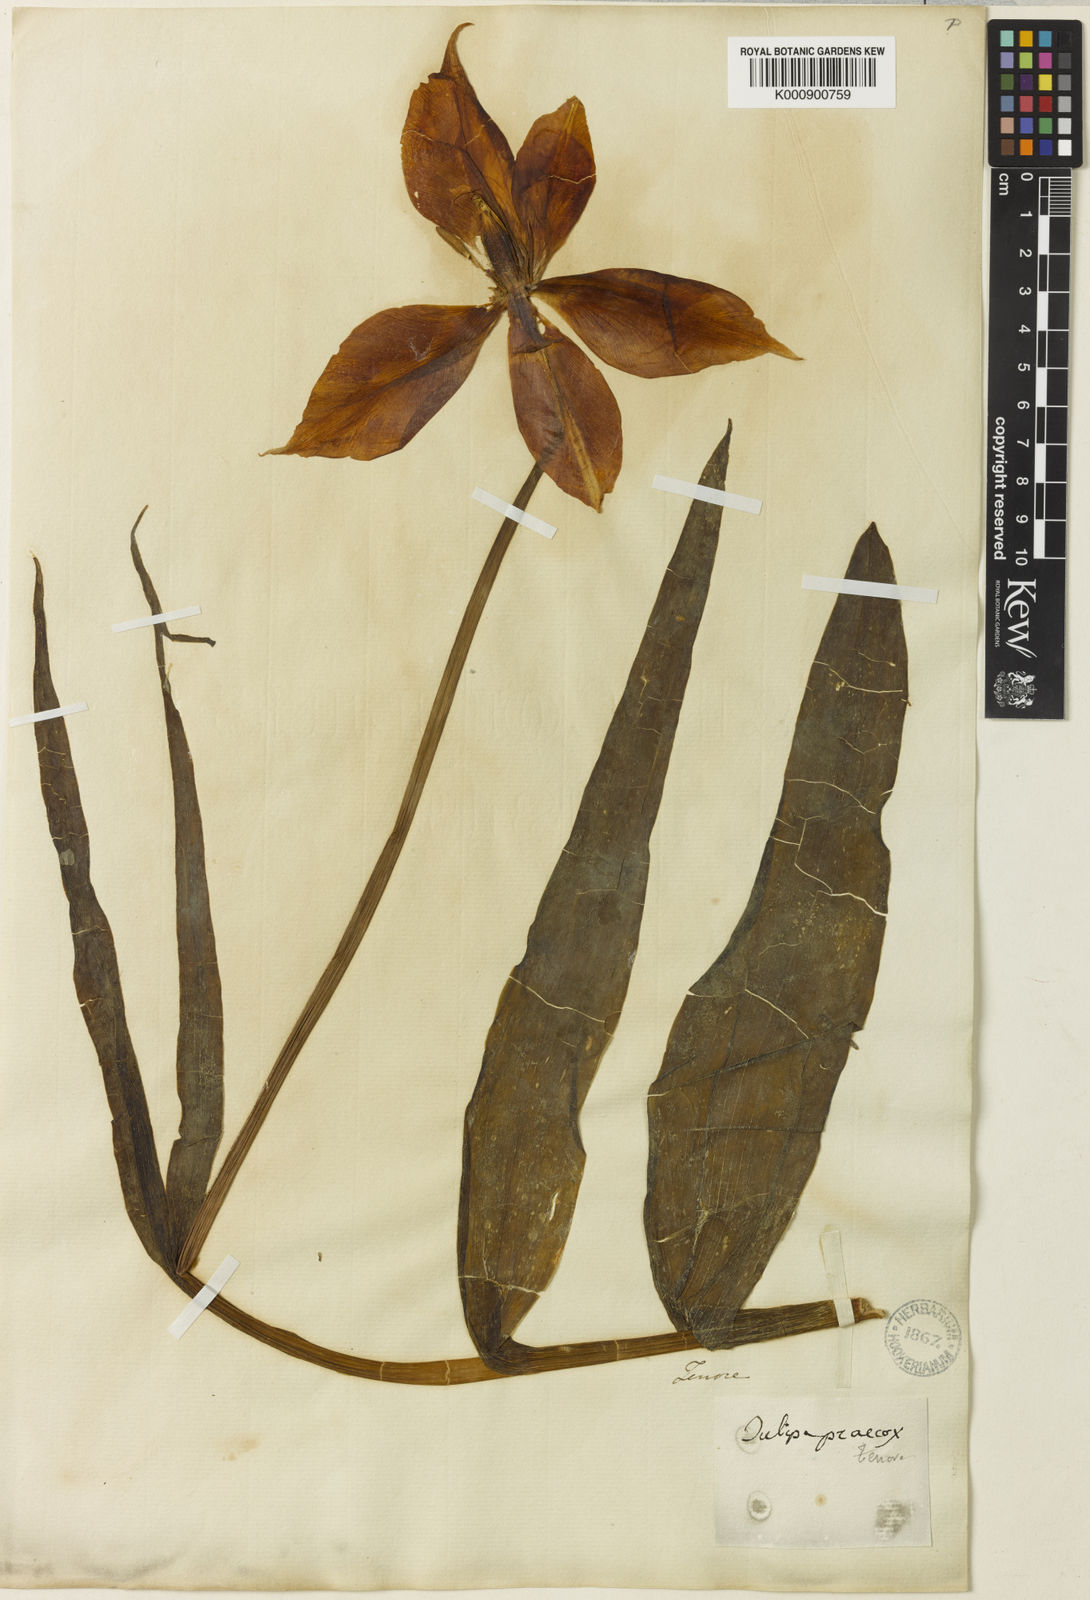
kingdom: Plantae
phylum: Tracheophyta
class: Liliopsida
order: Liliales
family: Liliaceae
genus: Tulipa
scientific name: Tulipa agenensis
